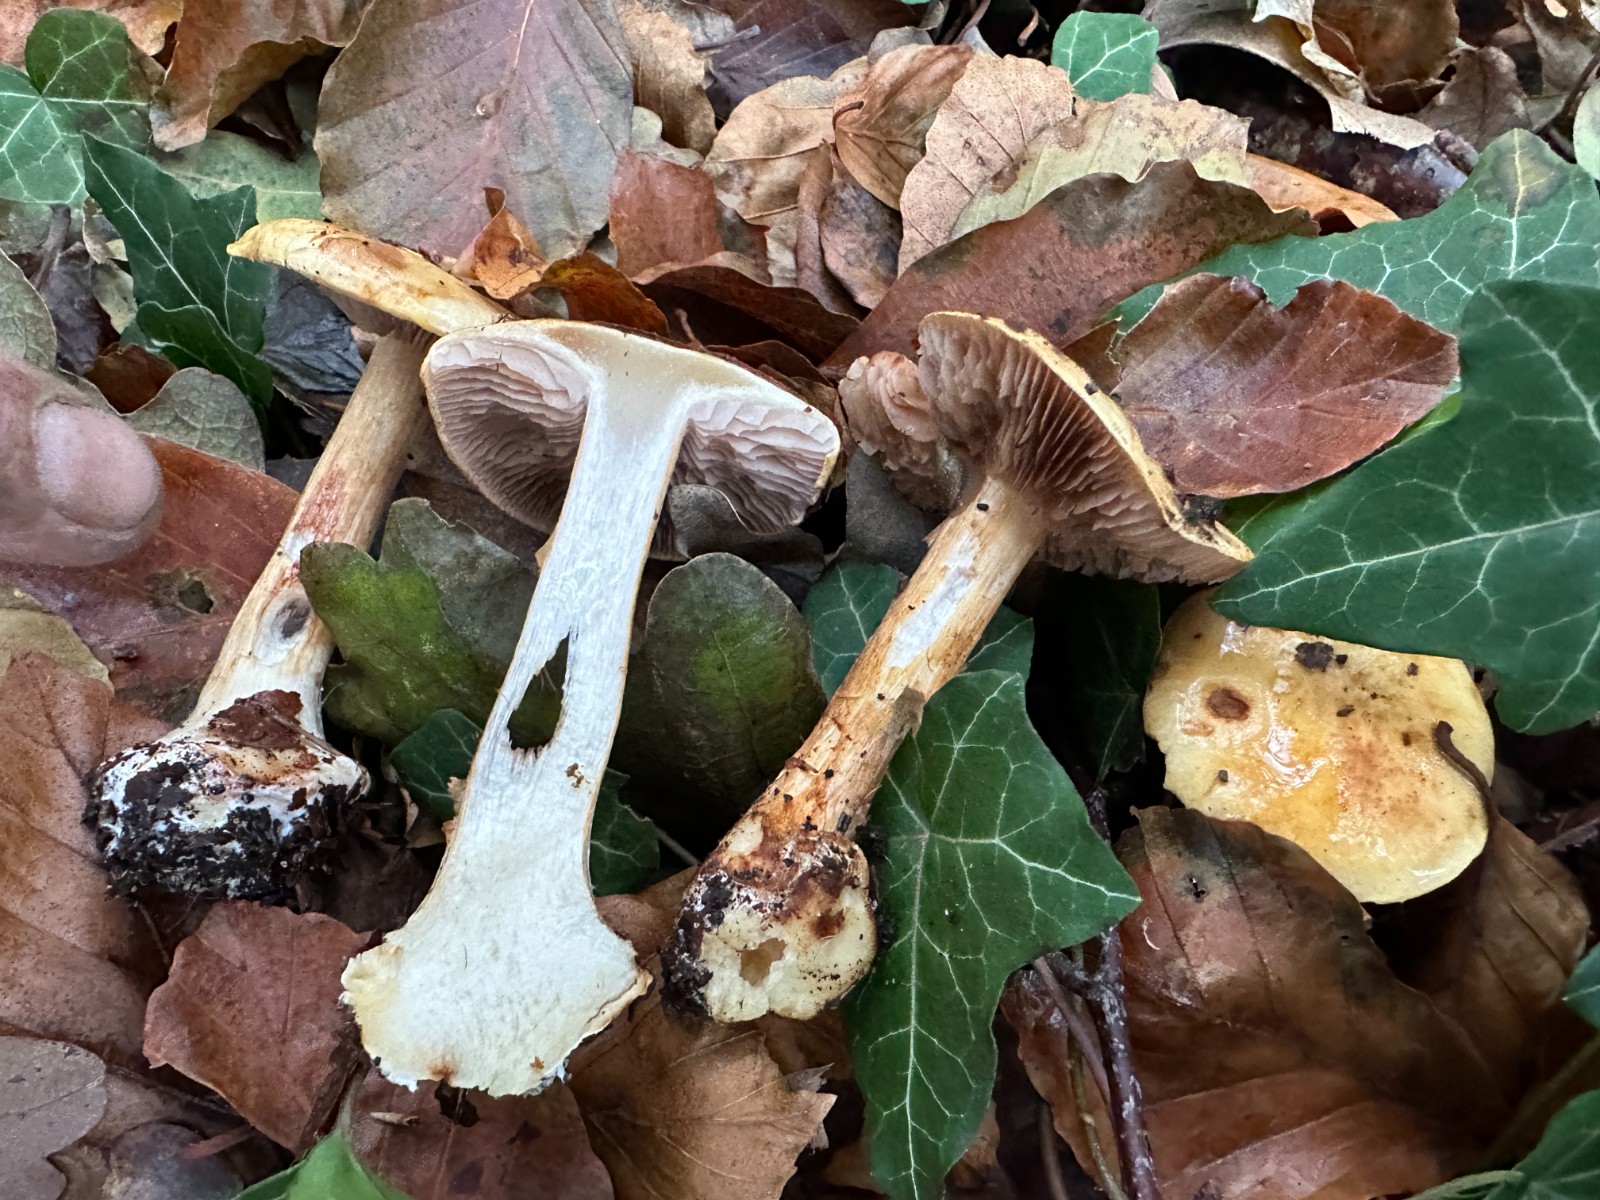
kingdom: Fungi
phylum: Basidiomycota
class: Agaricomycetes
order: Agaricales
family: Cortinariaceae
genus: Calonarius
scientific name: Calonarius
